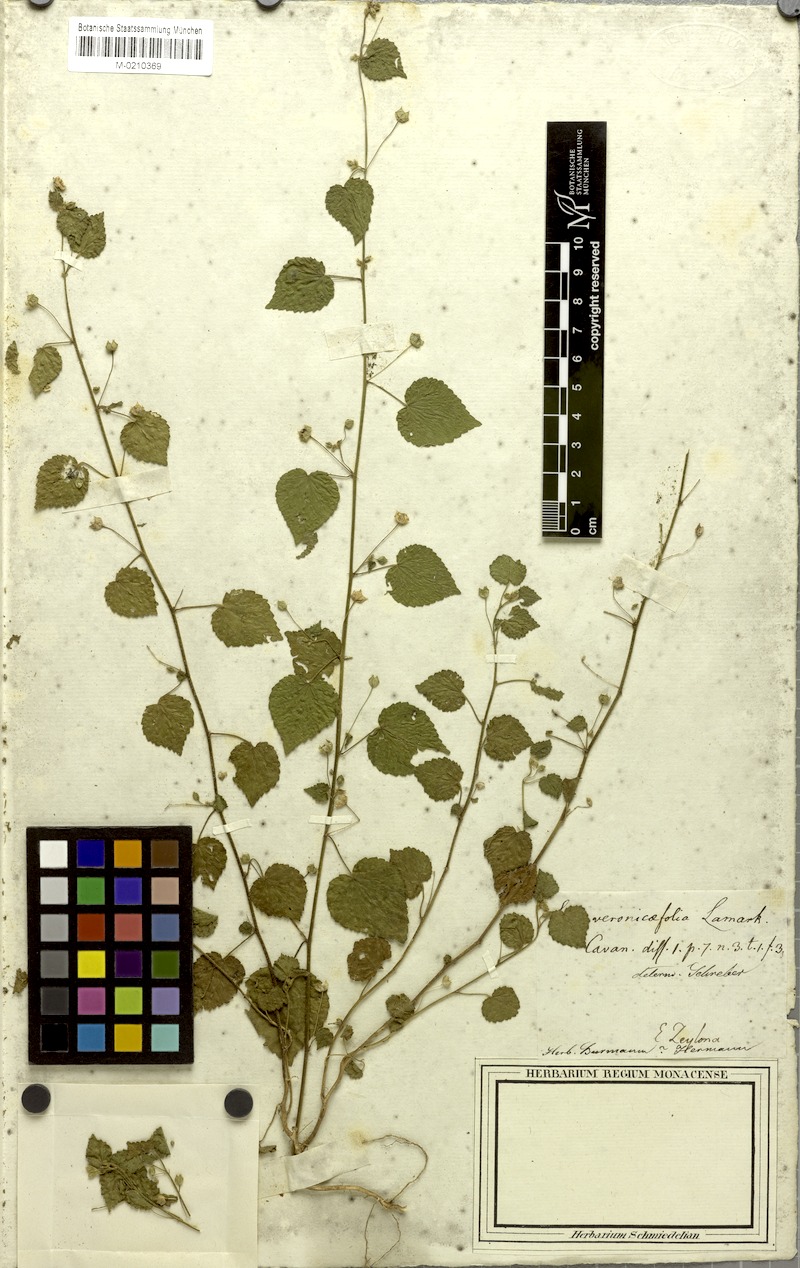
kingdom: Plantae
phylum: Tracheophyta
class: Magnoliopsida
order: Malvales
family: Malvaceae
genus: Melochia
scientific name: Melochia pyramidata
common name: Pyramidflower
